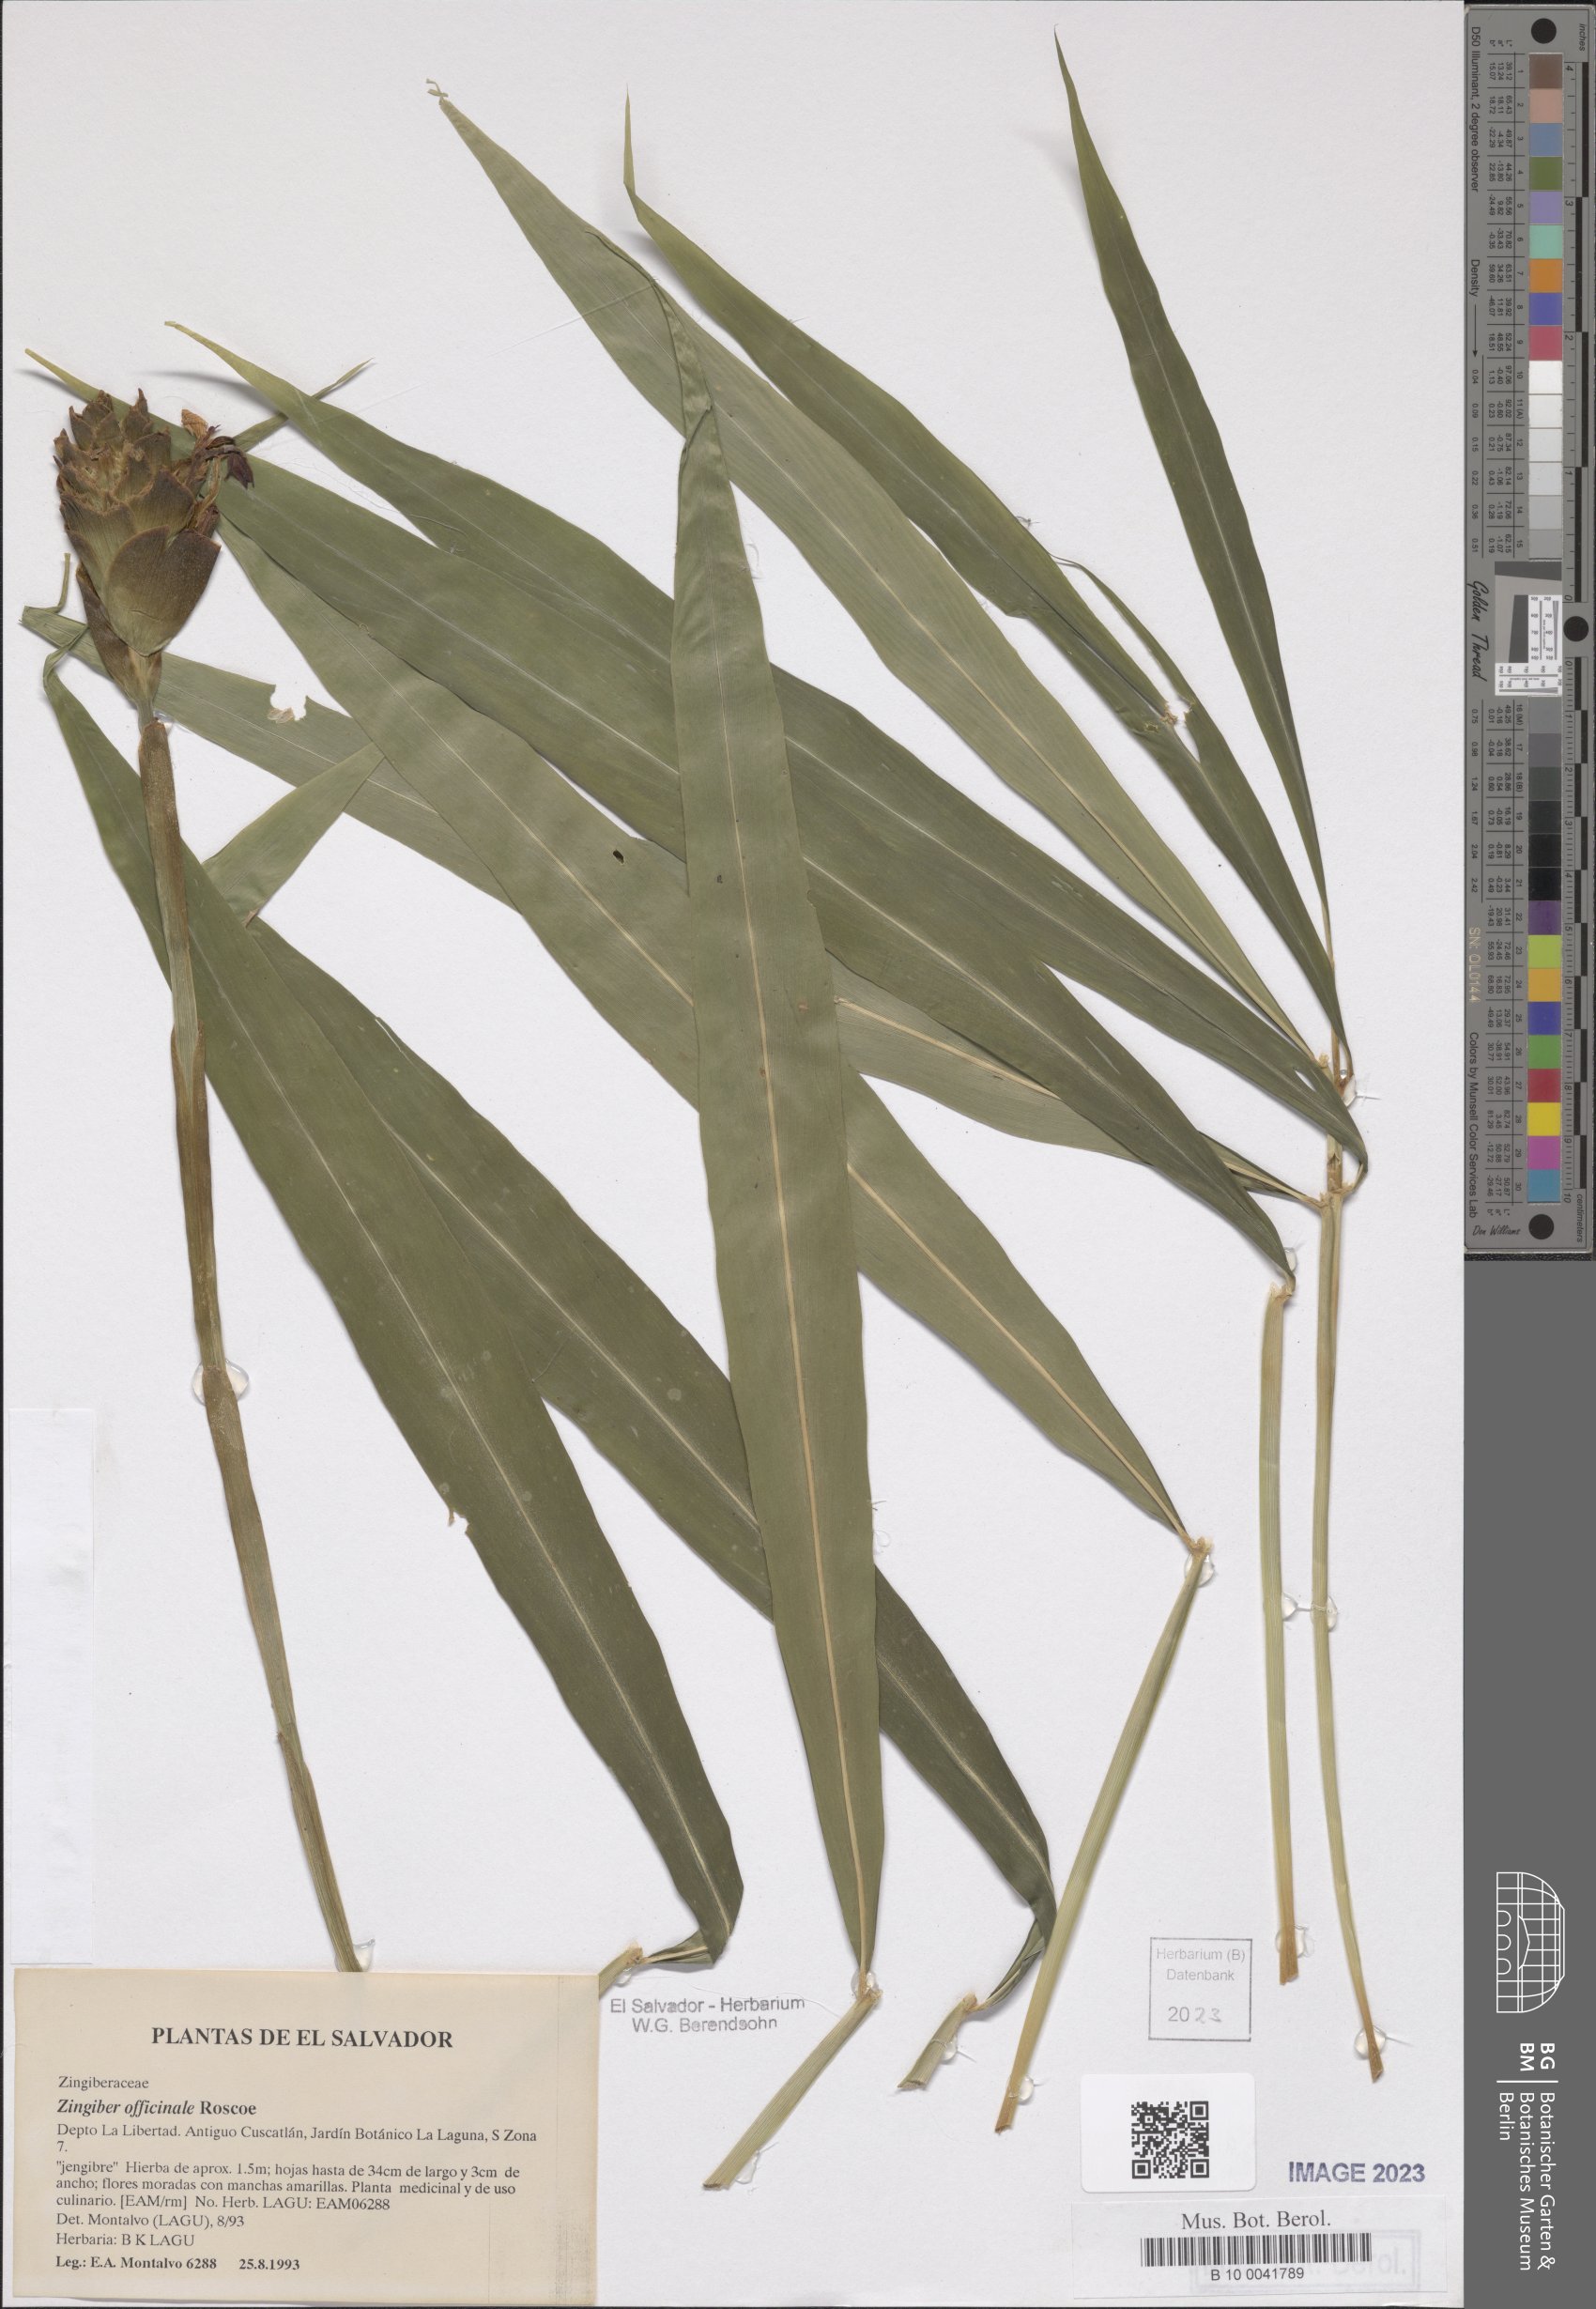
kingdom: Plantae
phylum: Tracheophyta
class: Liliopsida
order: Zingiberales
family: Zingiberaceae
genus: Zingiber
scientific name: Zingiber officinale
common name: Ginger
